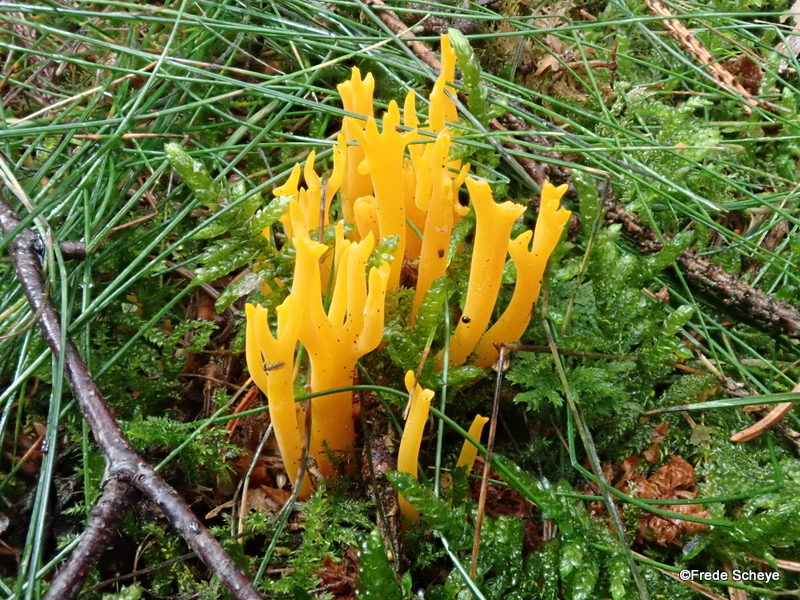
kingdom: Fungi
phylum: Basidiomycota
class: Dacrymycetes
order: Dacrymycetales
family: Dacrymycetaceae
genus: Calocera
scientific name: Calocera viscosa
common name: almindelig guldgaffel
